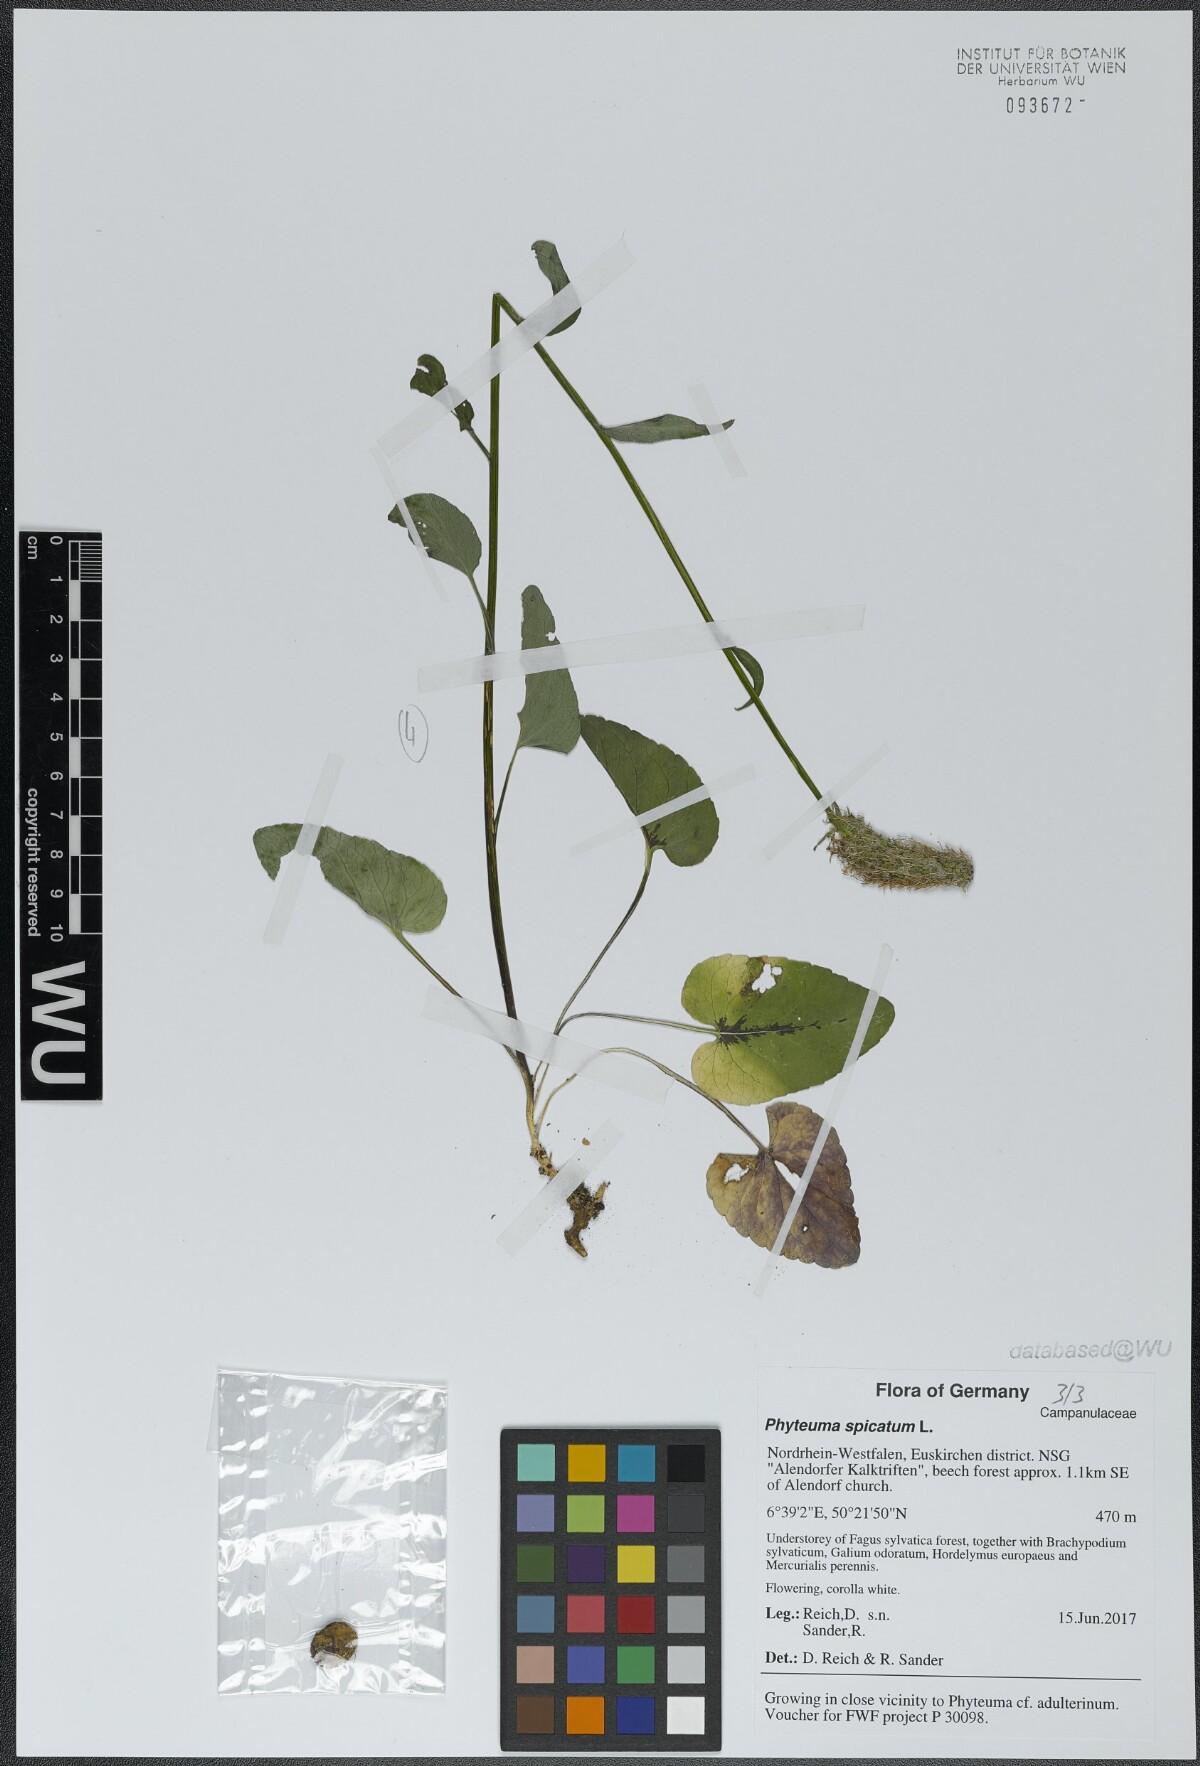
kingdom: Plantae
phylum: Tracheophyta
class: Magnoliopsida
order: Asterales
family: Campanulaceae
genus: Phyteuma
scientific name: Phyteuma spicatum
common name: Spiked rampion
